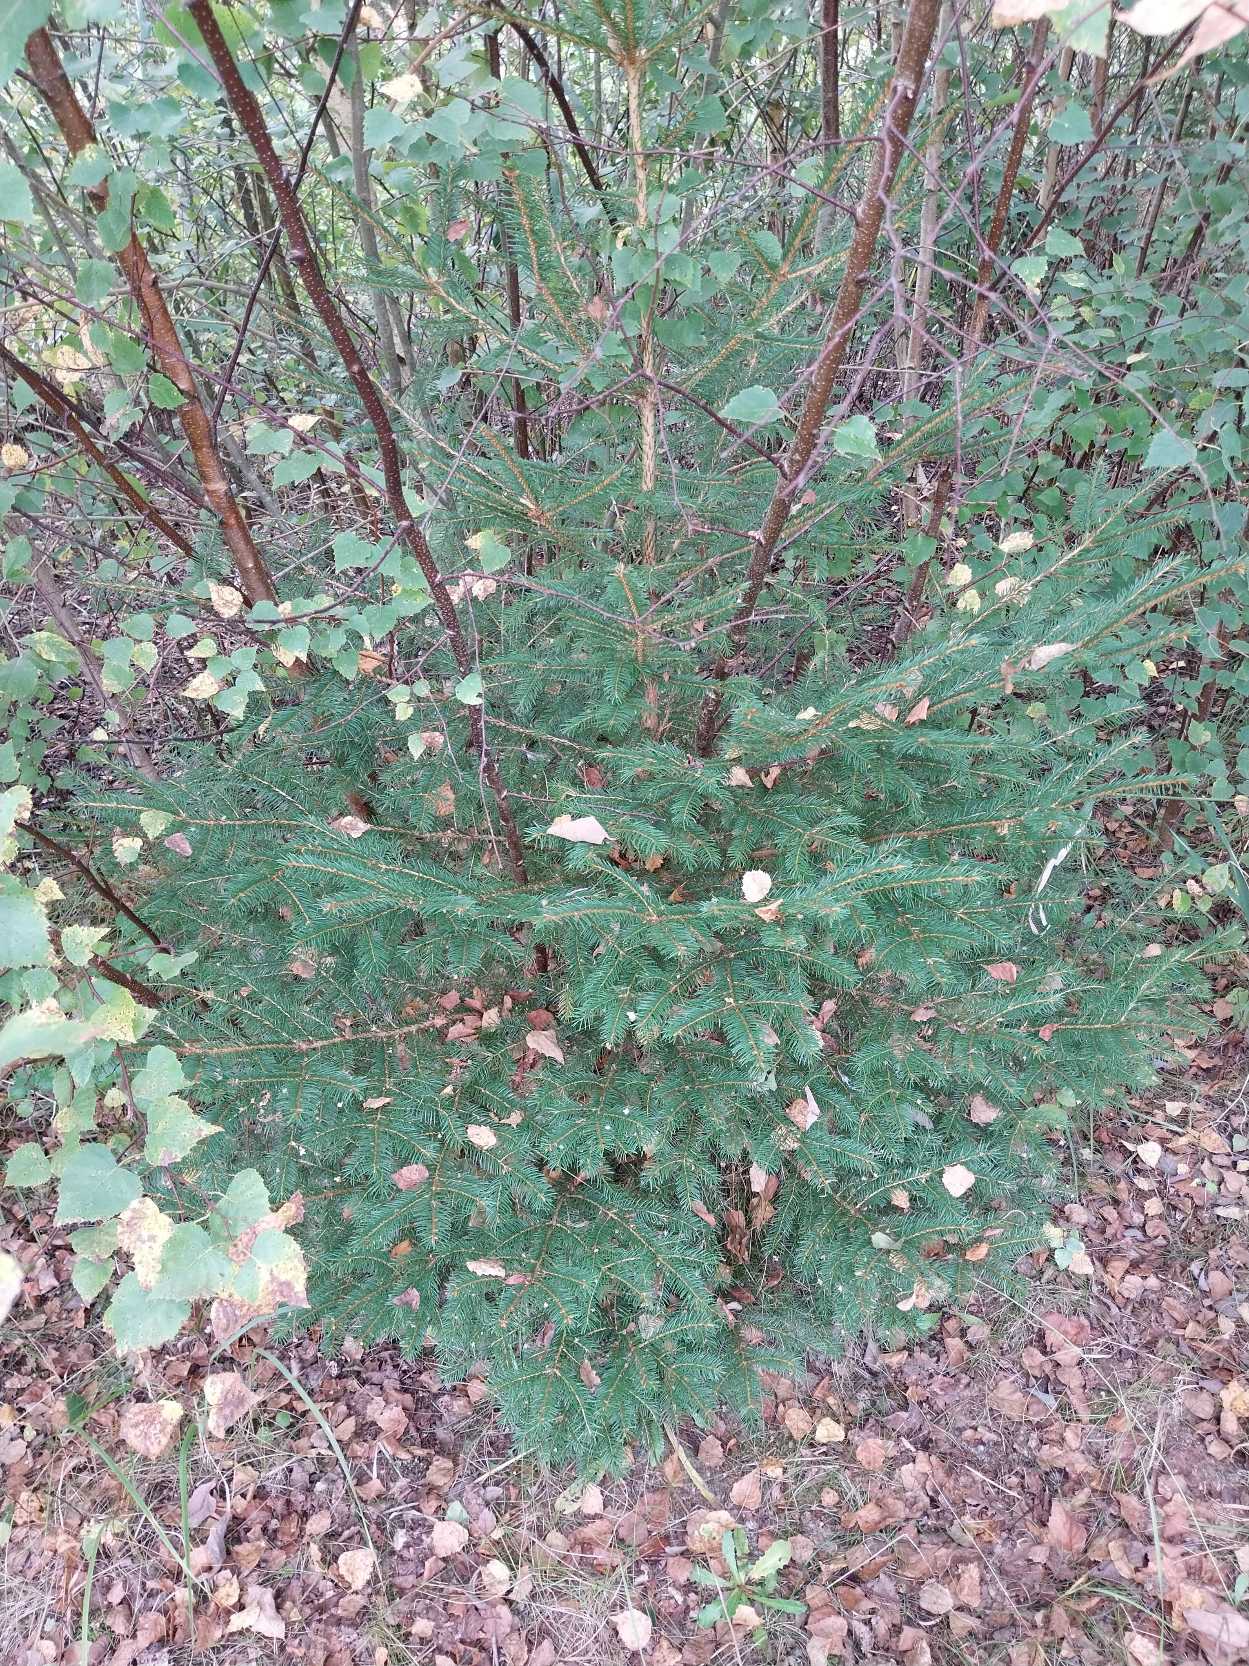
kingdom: Plantae
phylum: Tracheophyta
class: Pinopsida
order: Pinales
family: Pinaceae
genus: Picea
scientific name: Picea abies
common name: Rød-gran
